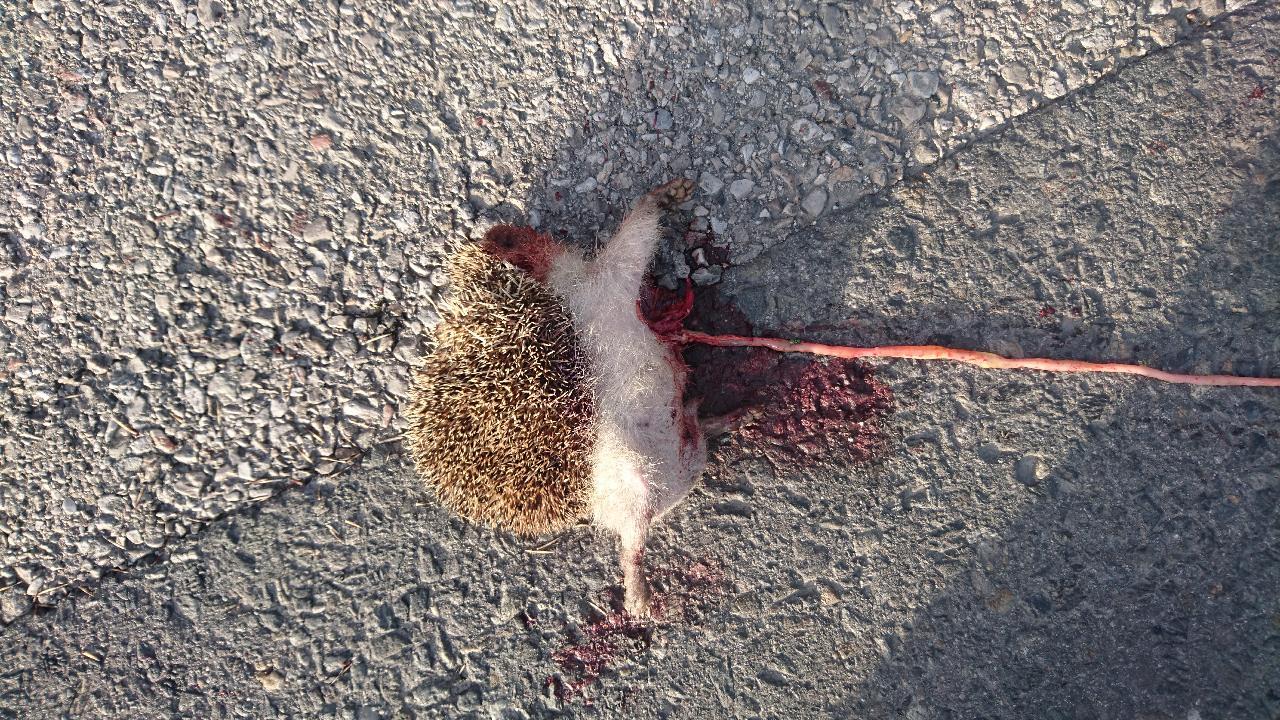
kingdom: Animalia
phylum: Chordata
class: Mammalia
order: Erinaceomorpha
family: Erinaceidae
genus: Erinaceus
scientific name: Erinaceus
